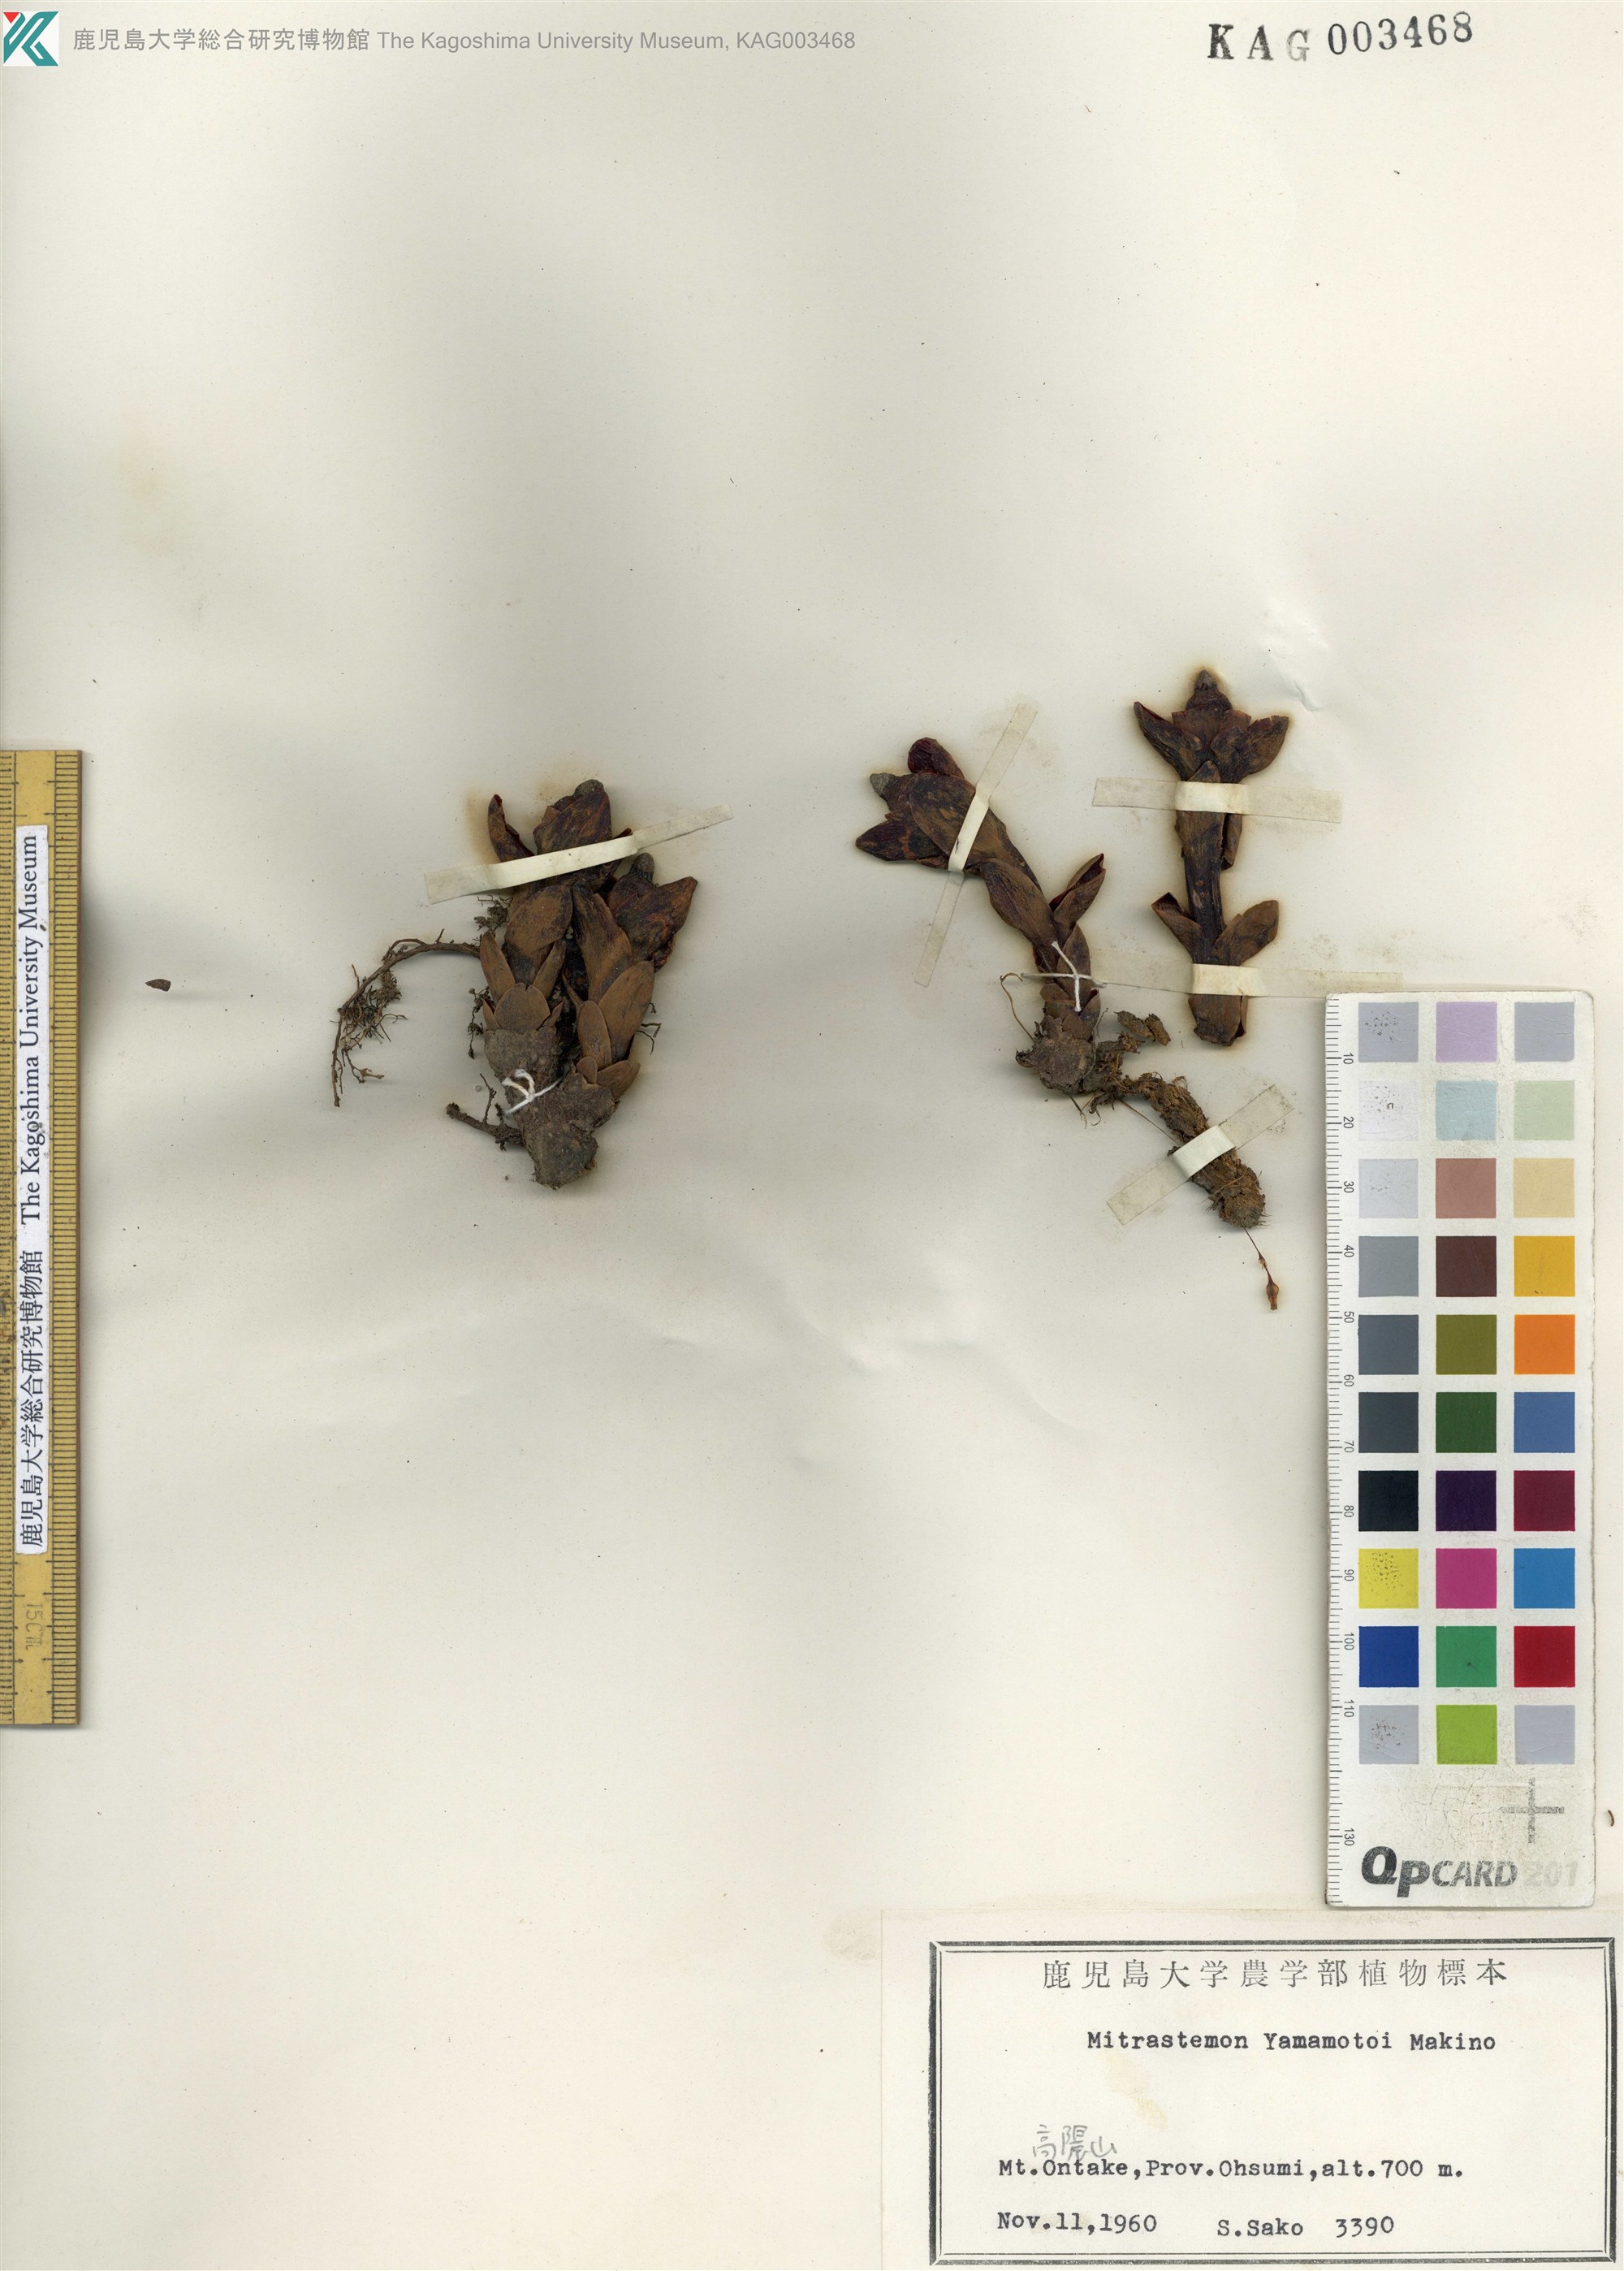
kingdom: Plantae
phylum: Tracheophyta
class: Magnoliopsida
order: Ericales
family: Mitrastemonaceae
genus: Mitrastemon
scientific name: Mitrastemon yamamotoi
